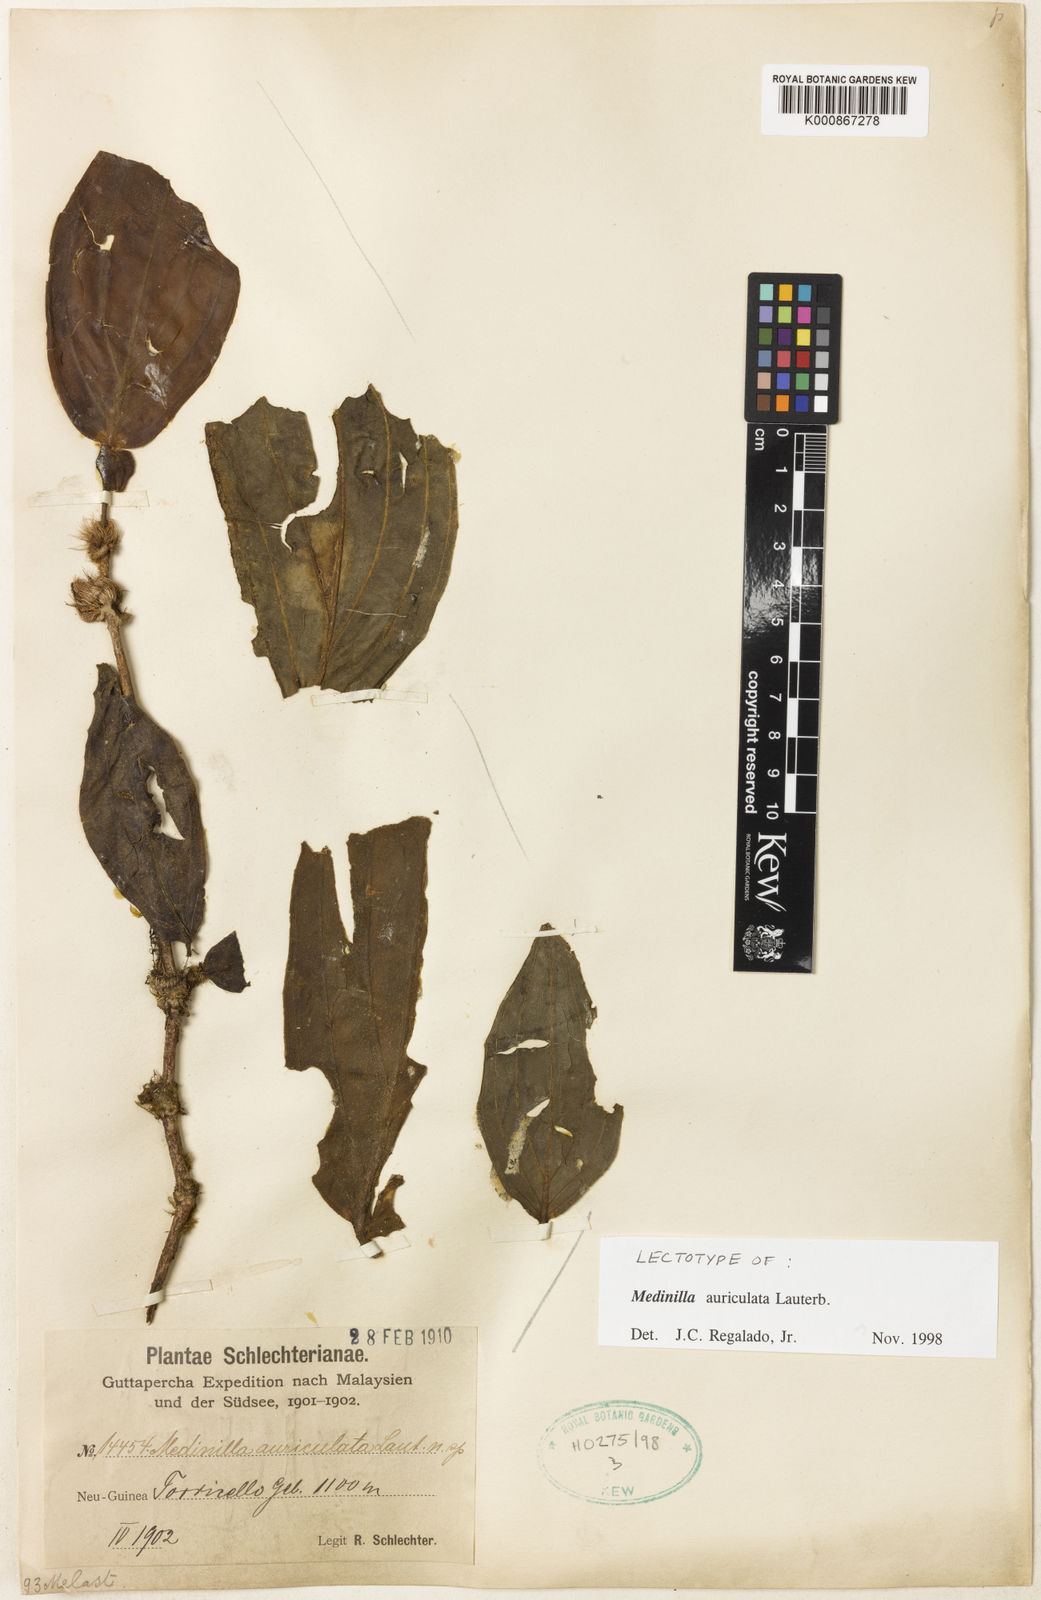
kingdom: Plantae
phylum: Tracheophyta
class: Magnoliopsida
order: Myrtales
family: Melastomataceae
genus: Medinilla
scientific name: Medinilla auriculata
